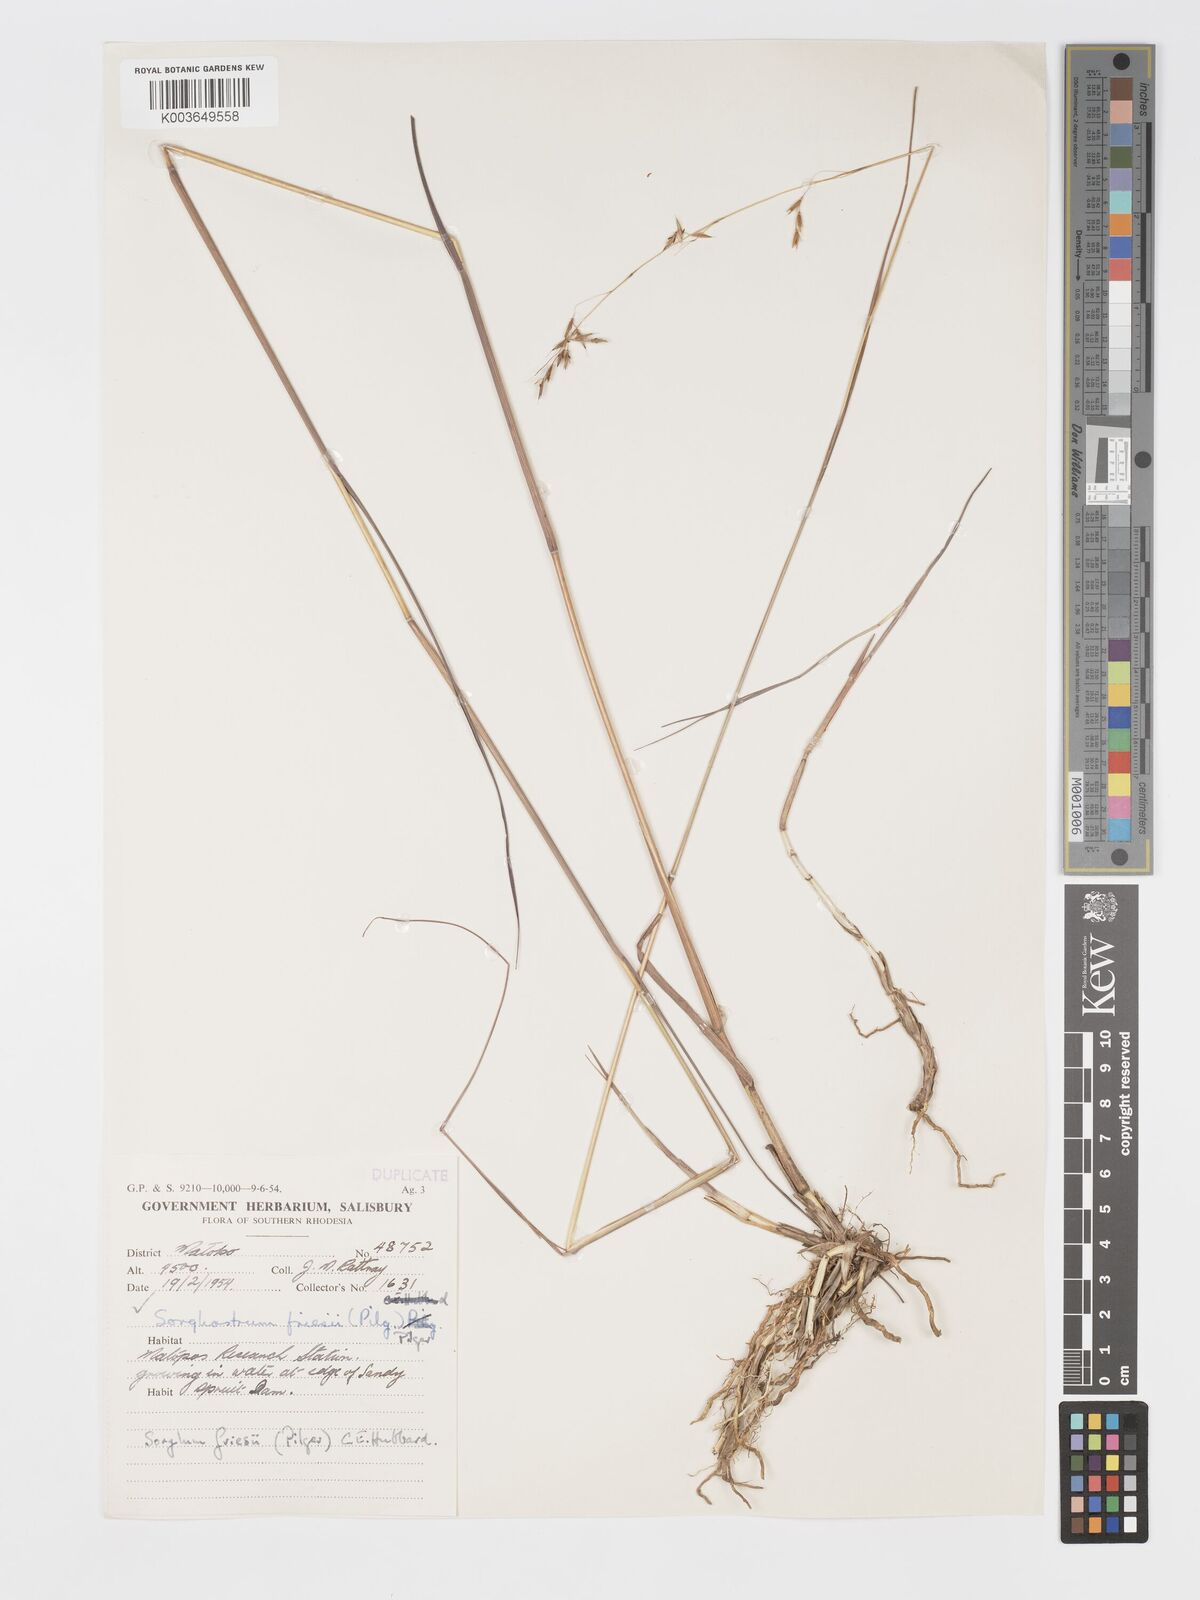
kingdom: Plantae
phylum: Tracheophyta
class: Liliopsida
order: Poales
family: Poaceae
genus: Sorghastrum
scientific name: Sorghastrum nudipes
